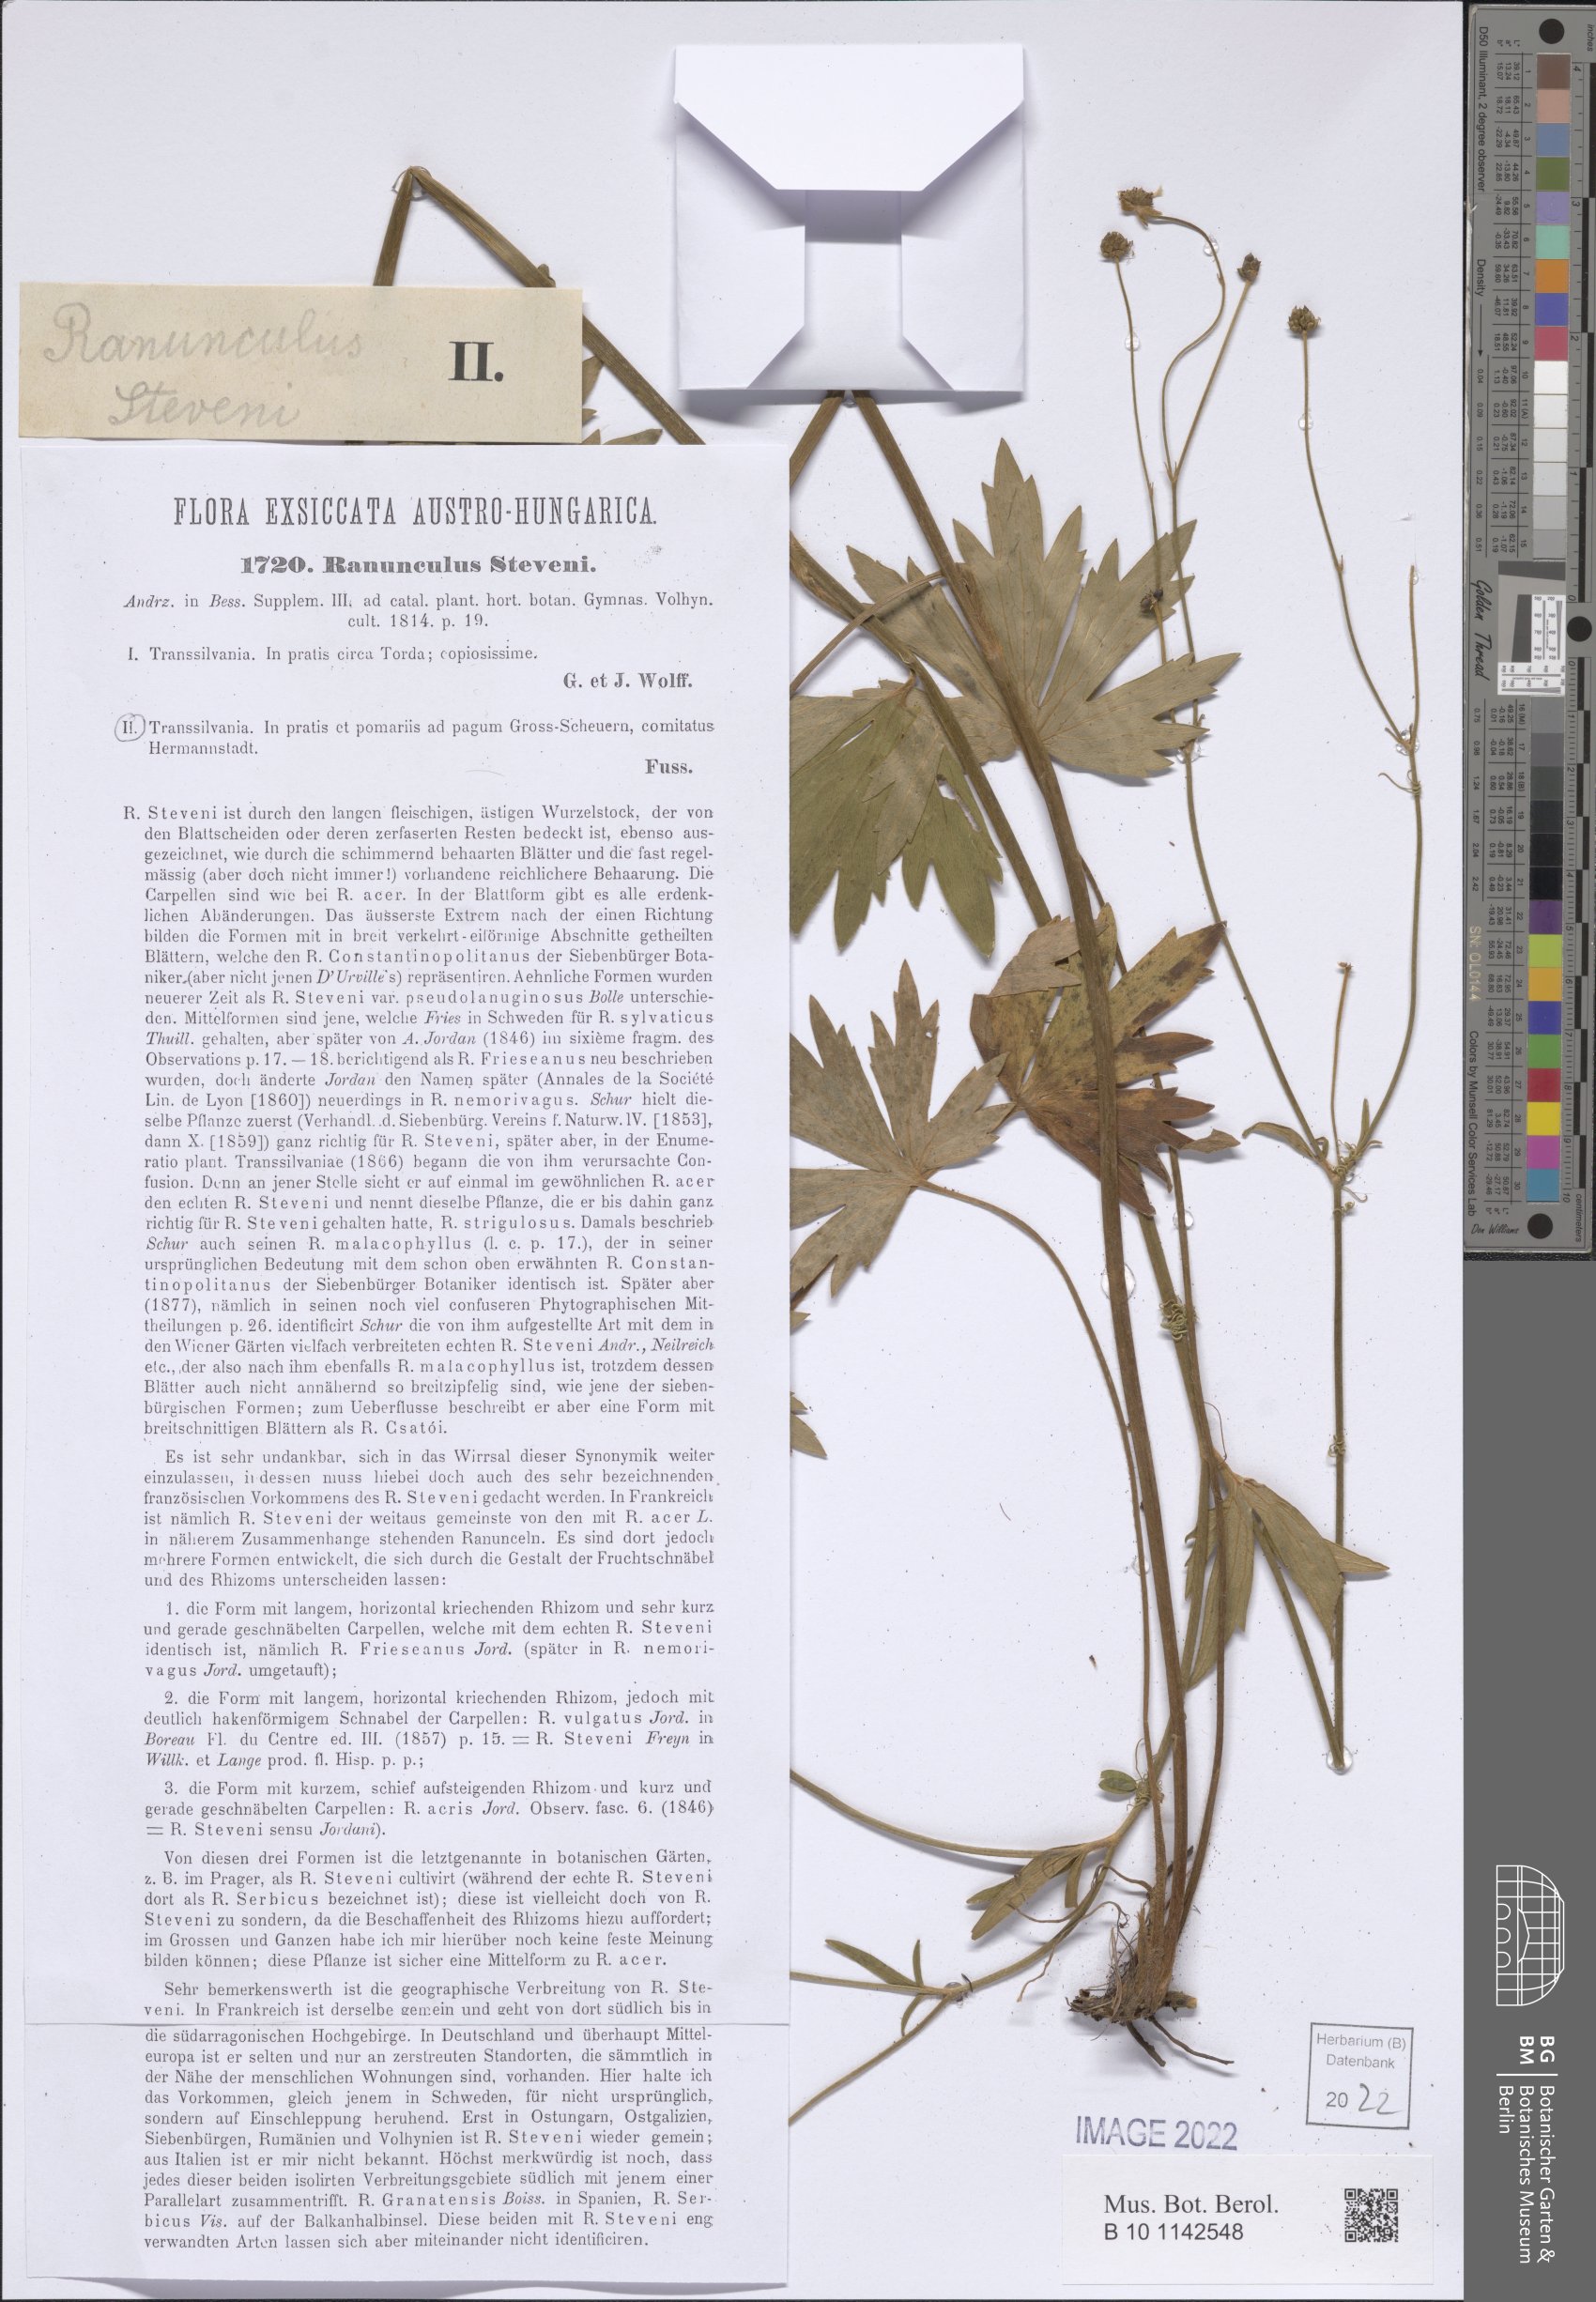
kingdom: Plantae
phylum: Tracheophyta
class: Magnoliopsida
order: Ranunculales
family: Ranunculaceae
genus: Ranunculus
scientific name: Ranunculus japonicus
